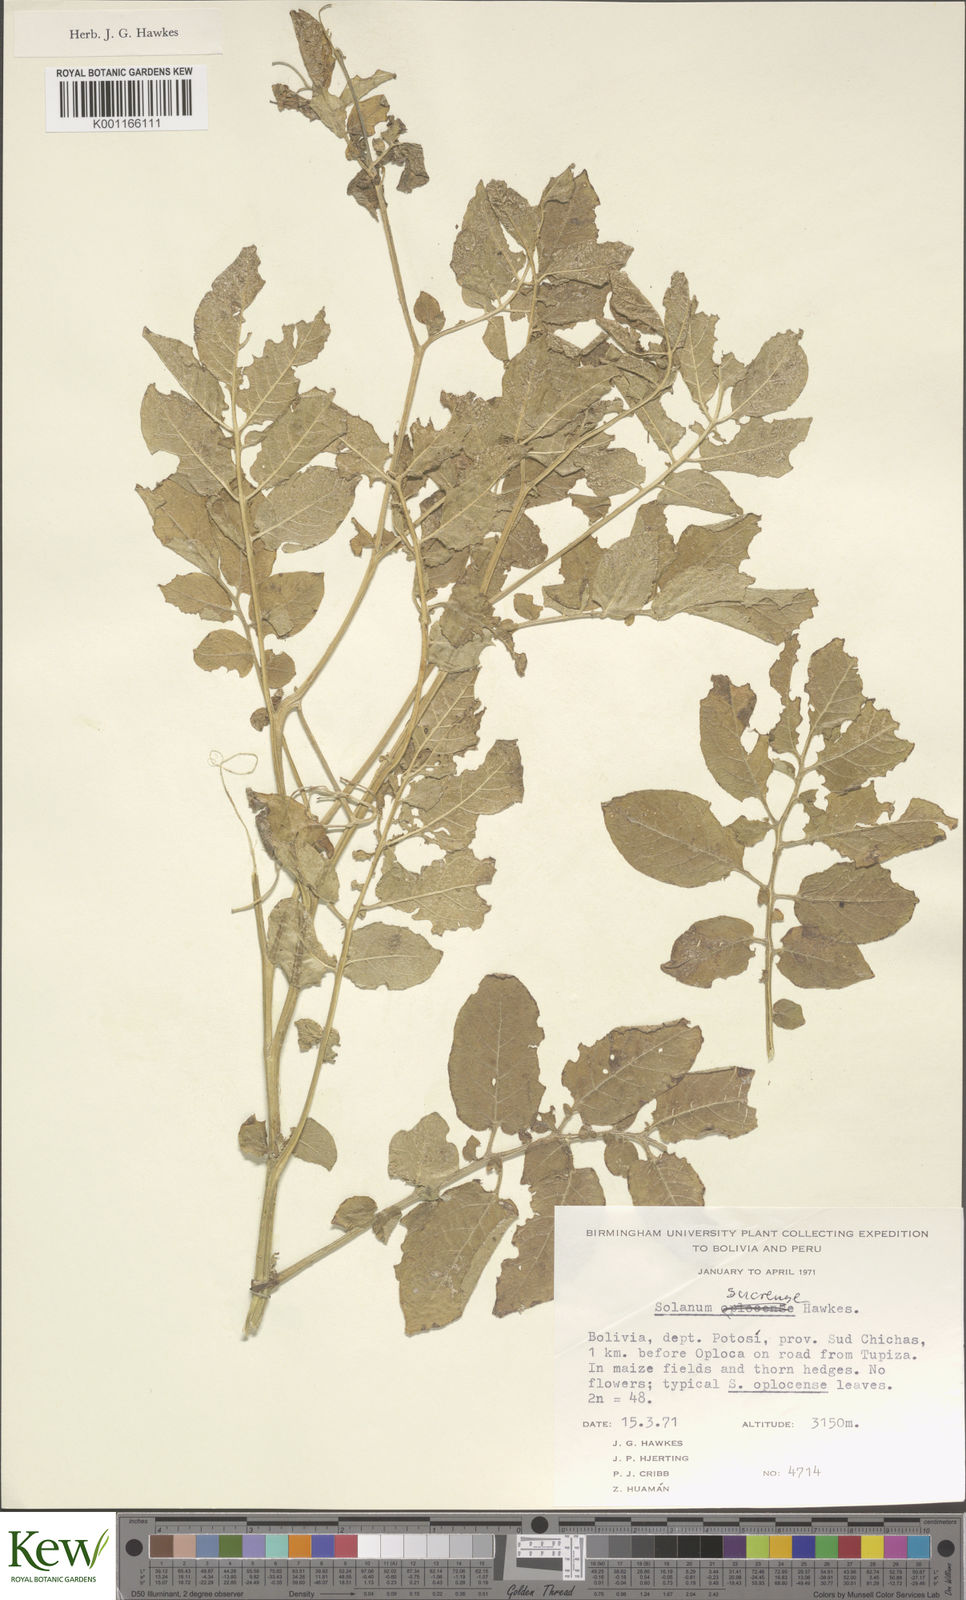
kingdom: Plantae
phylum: Tracheophyta
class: Magnoliopsida
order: Solanales
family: Solanaceae
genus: Solanum
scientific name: Solanum brevicaule
